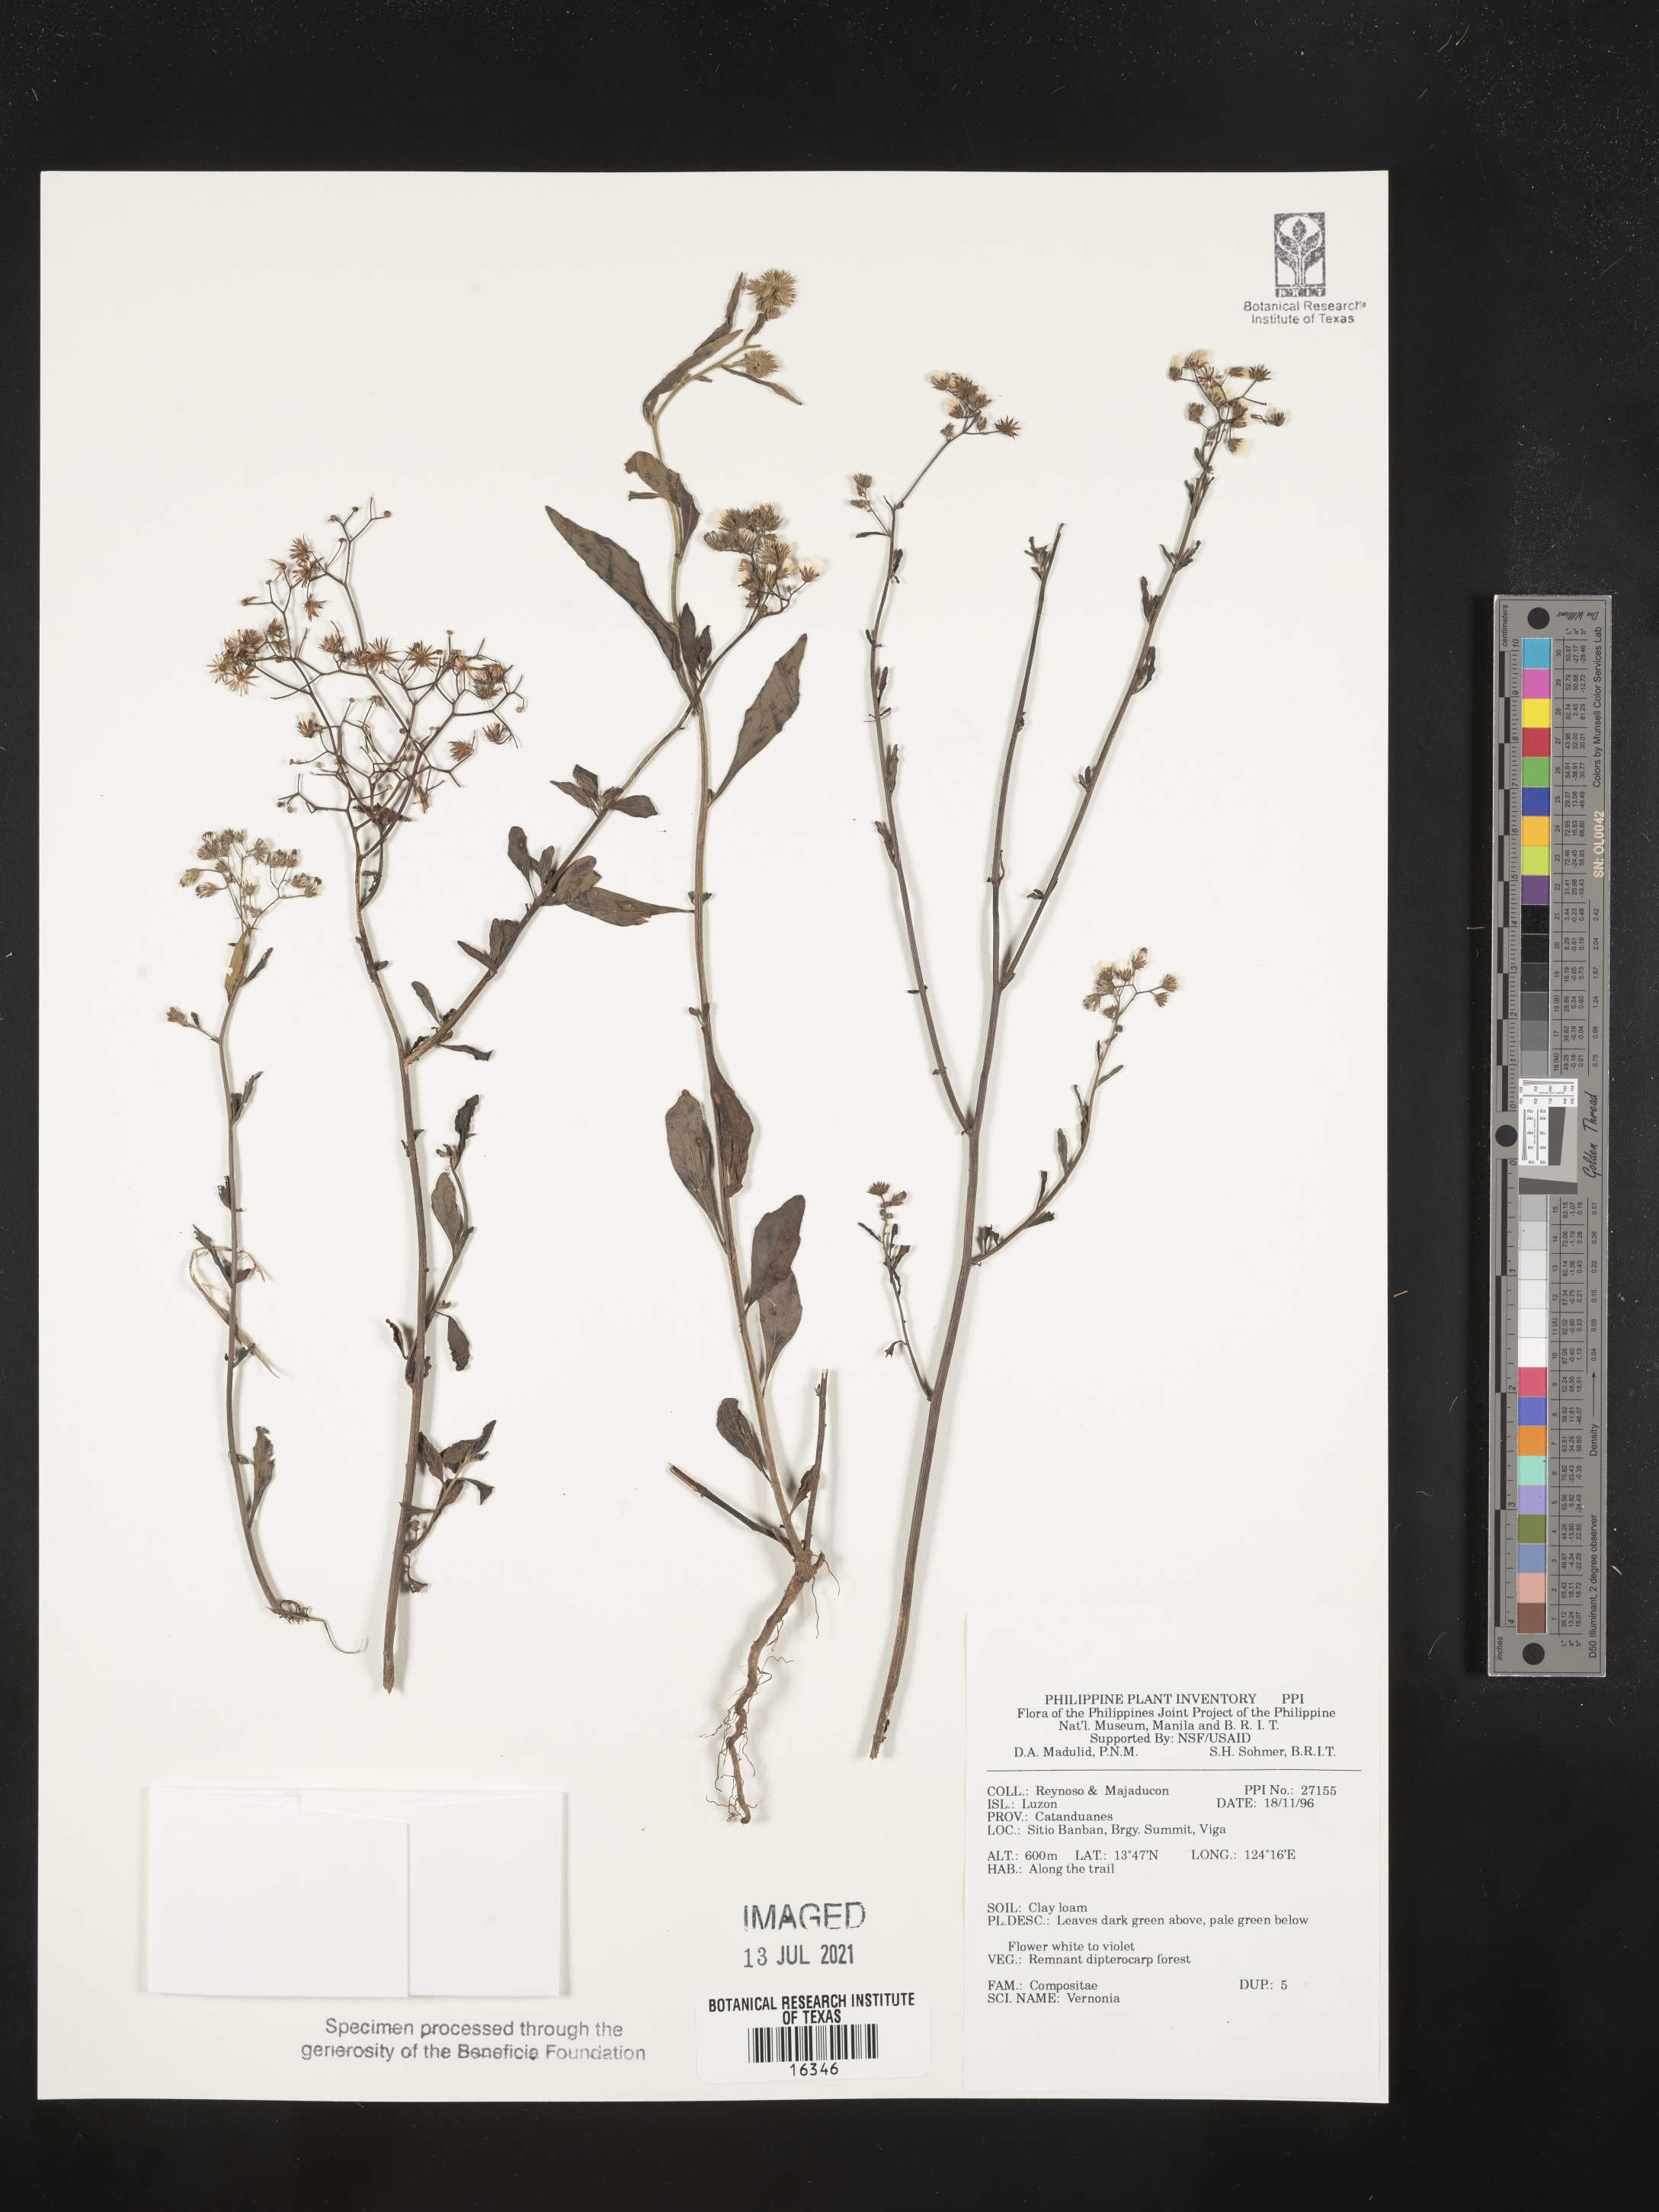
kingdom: Plantae
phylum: Tracheophyta
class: Magnoliopsida
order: Asterales
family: Asteraceae
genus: Vernonia
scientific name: Vernonia
